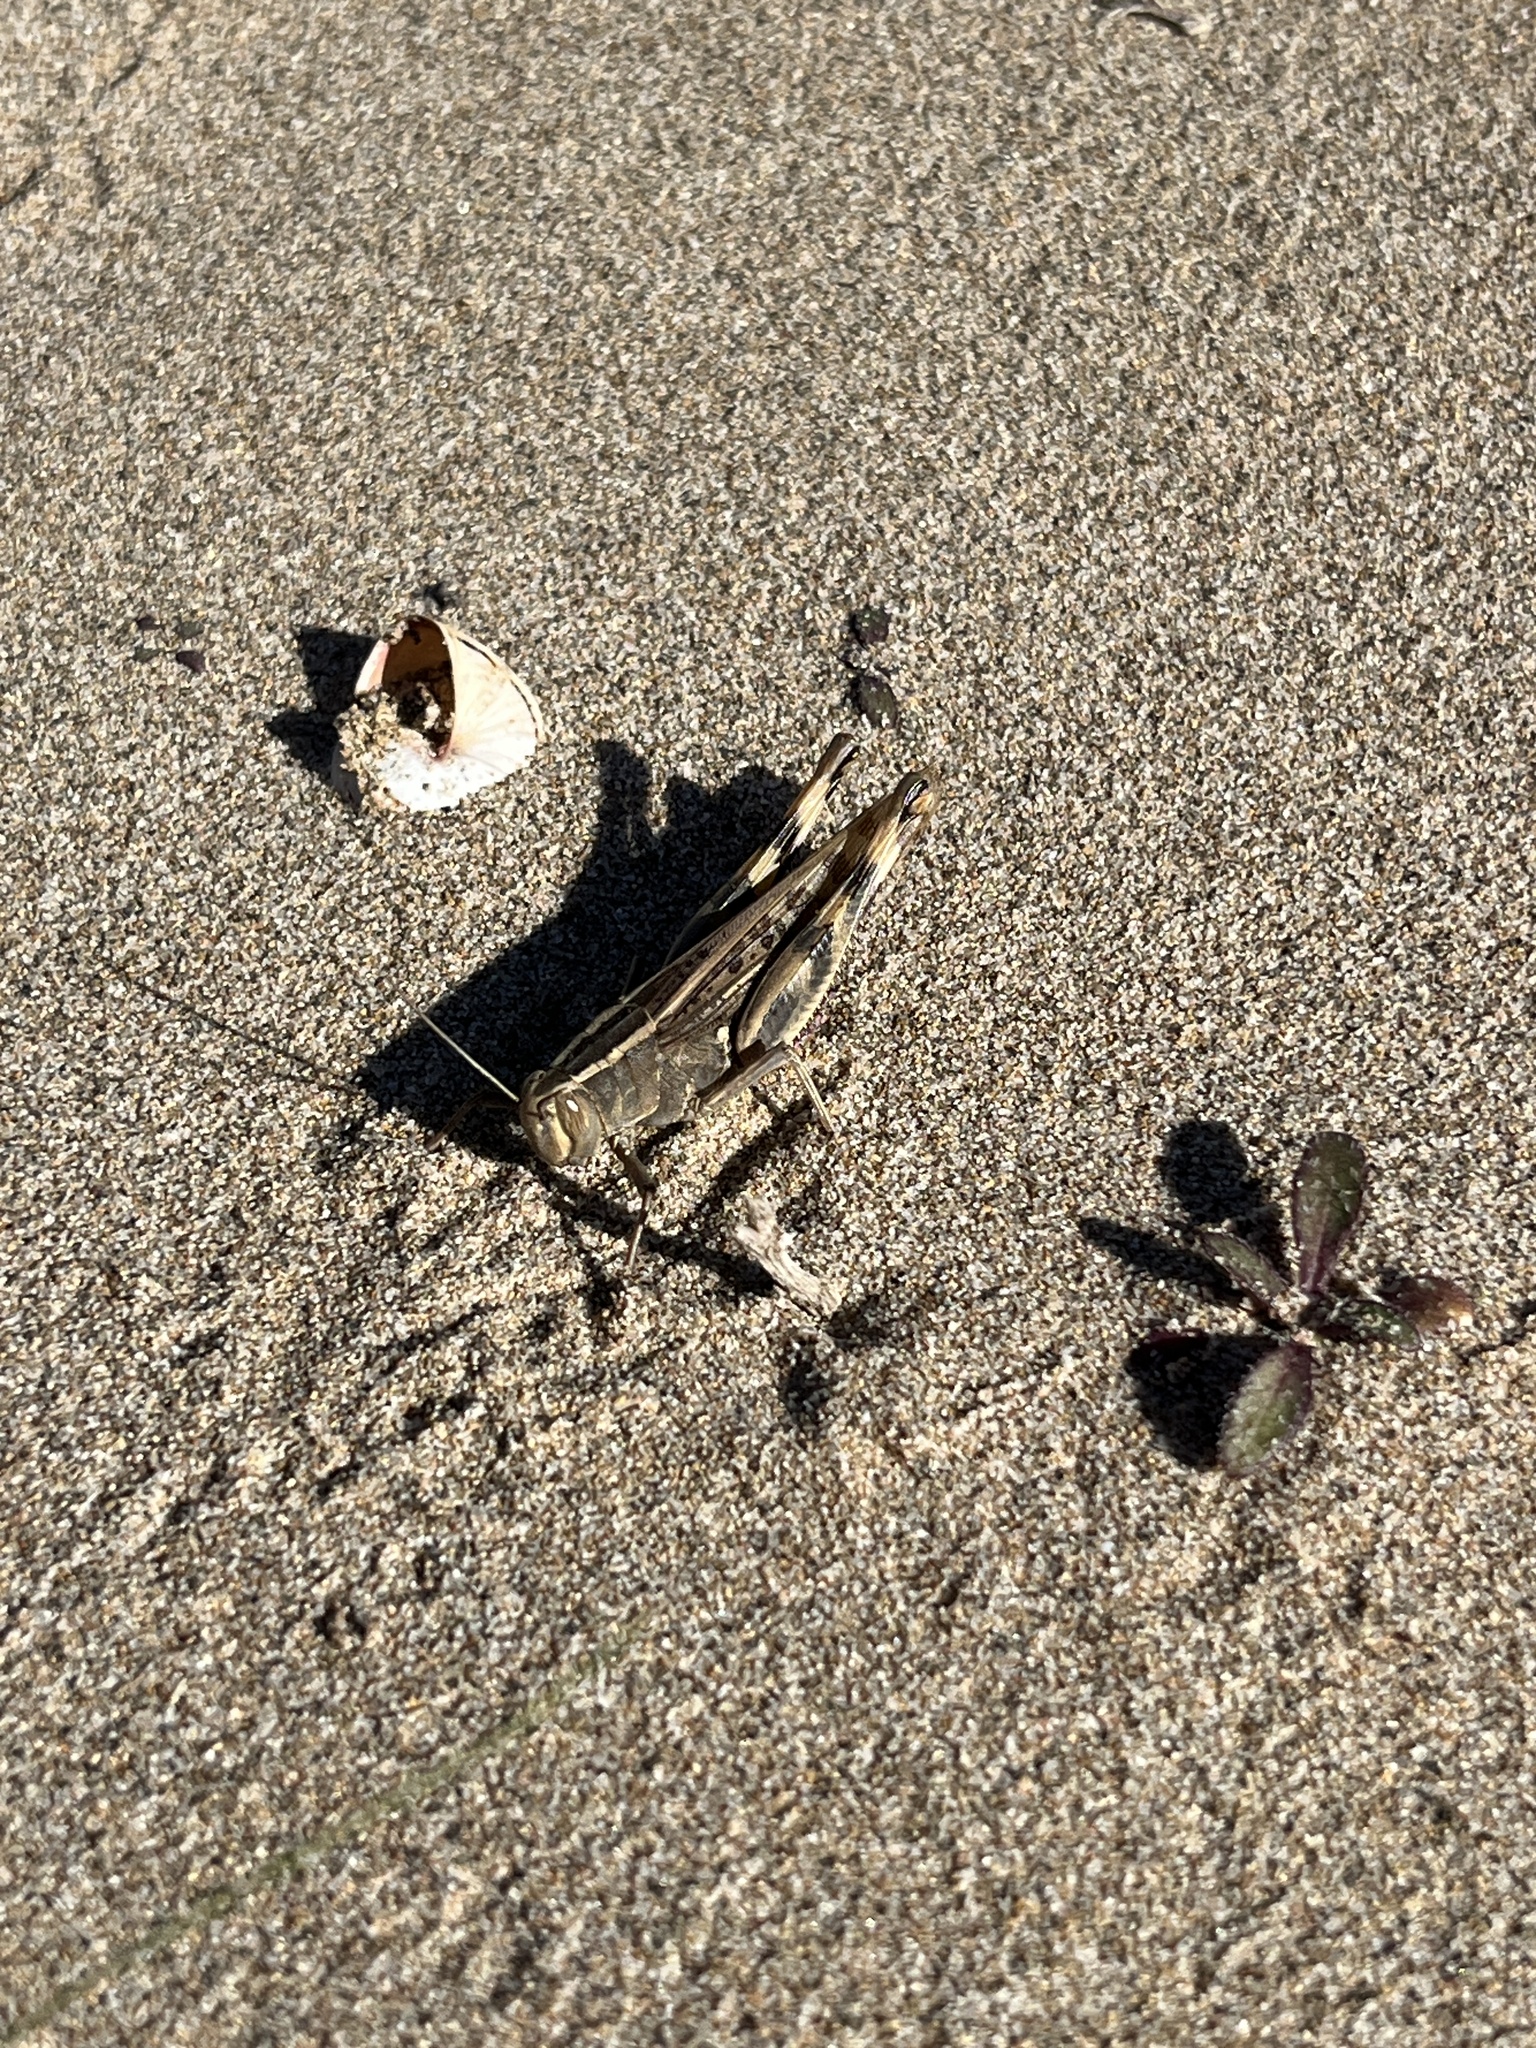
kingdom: Animalia
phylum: Arthropoda
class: Insecta
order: Orthoptera
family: Acrididae
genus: Heteracris
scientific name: Heteracris littoralis
